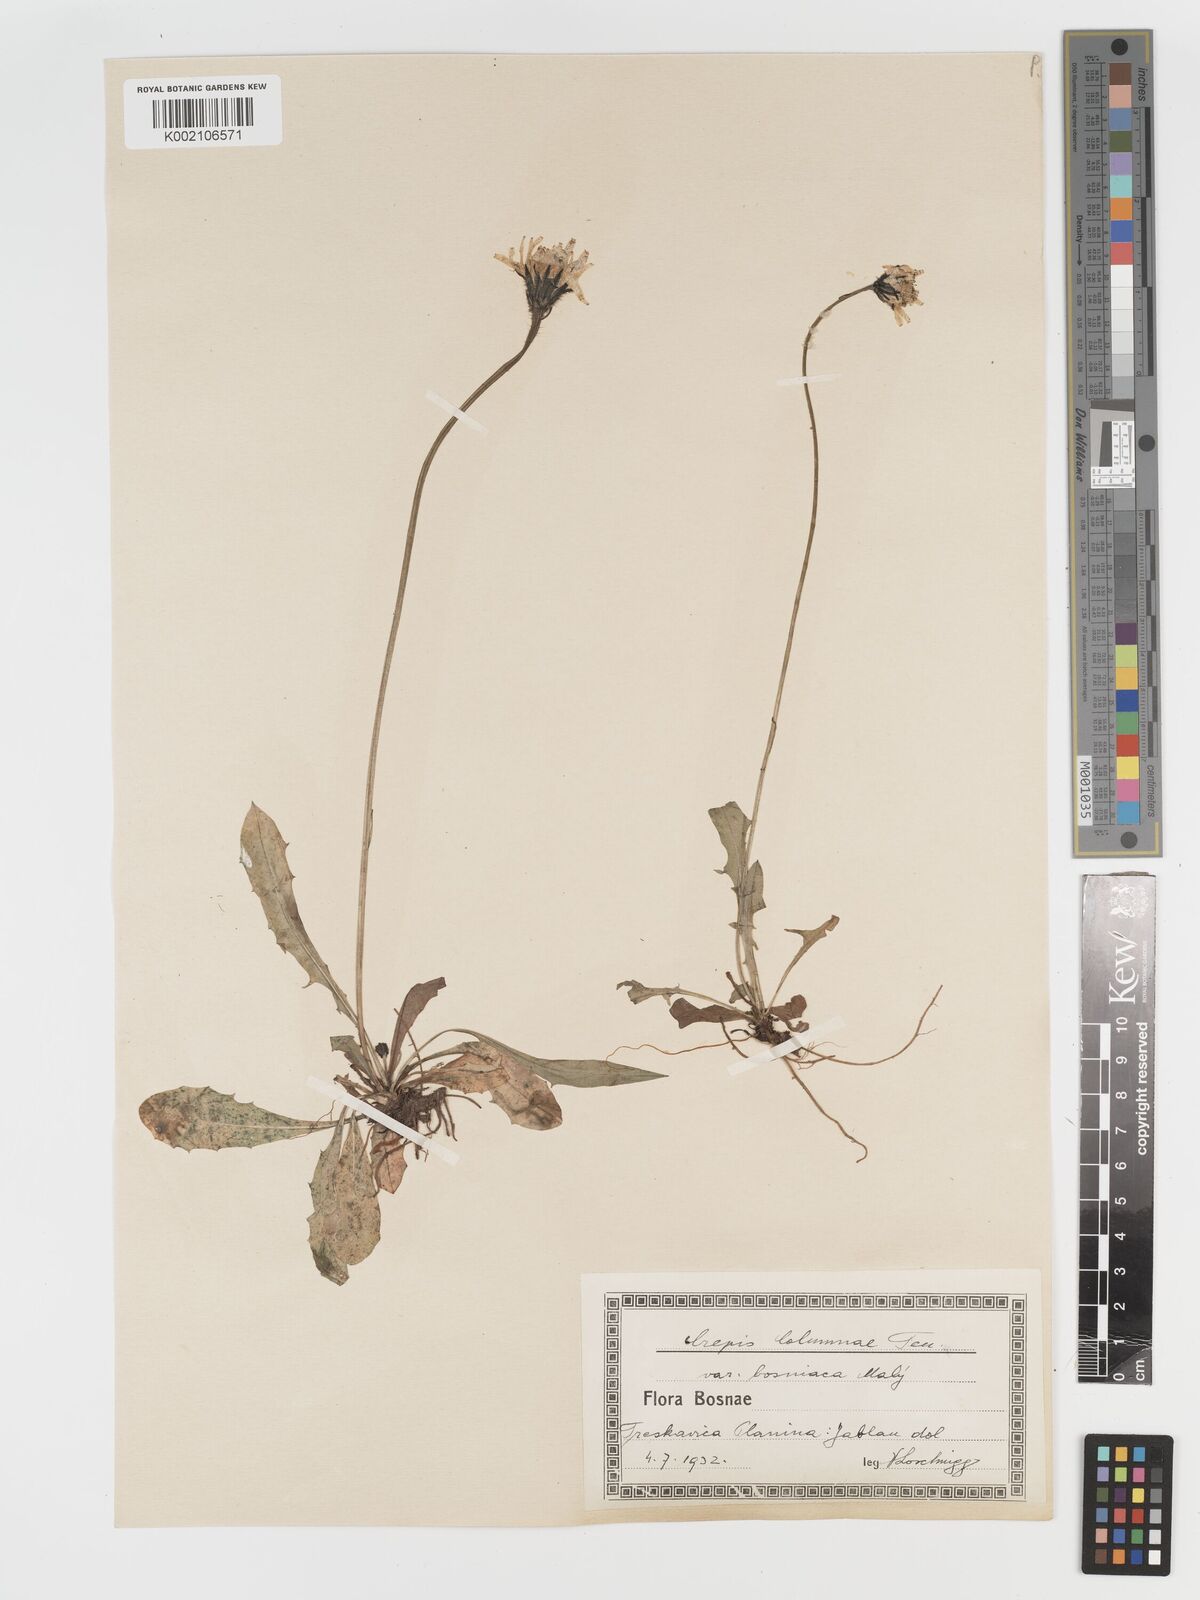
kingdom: Plantae
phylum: Tracheophyta
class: Magnoliopsida
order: Asterales
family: Asteraceae
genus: Crepis
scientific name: Crepis aurea
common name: Golden hawk's-beard
